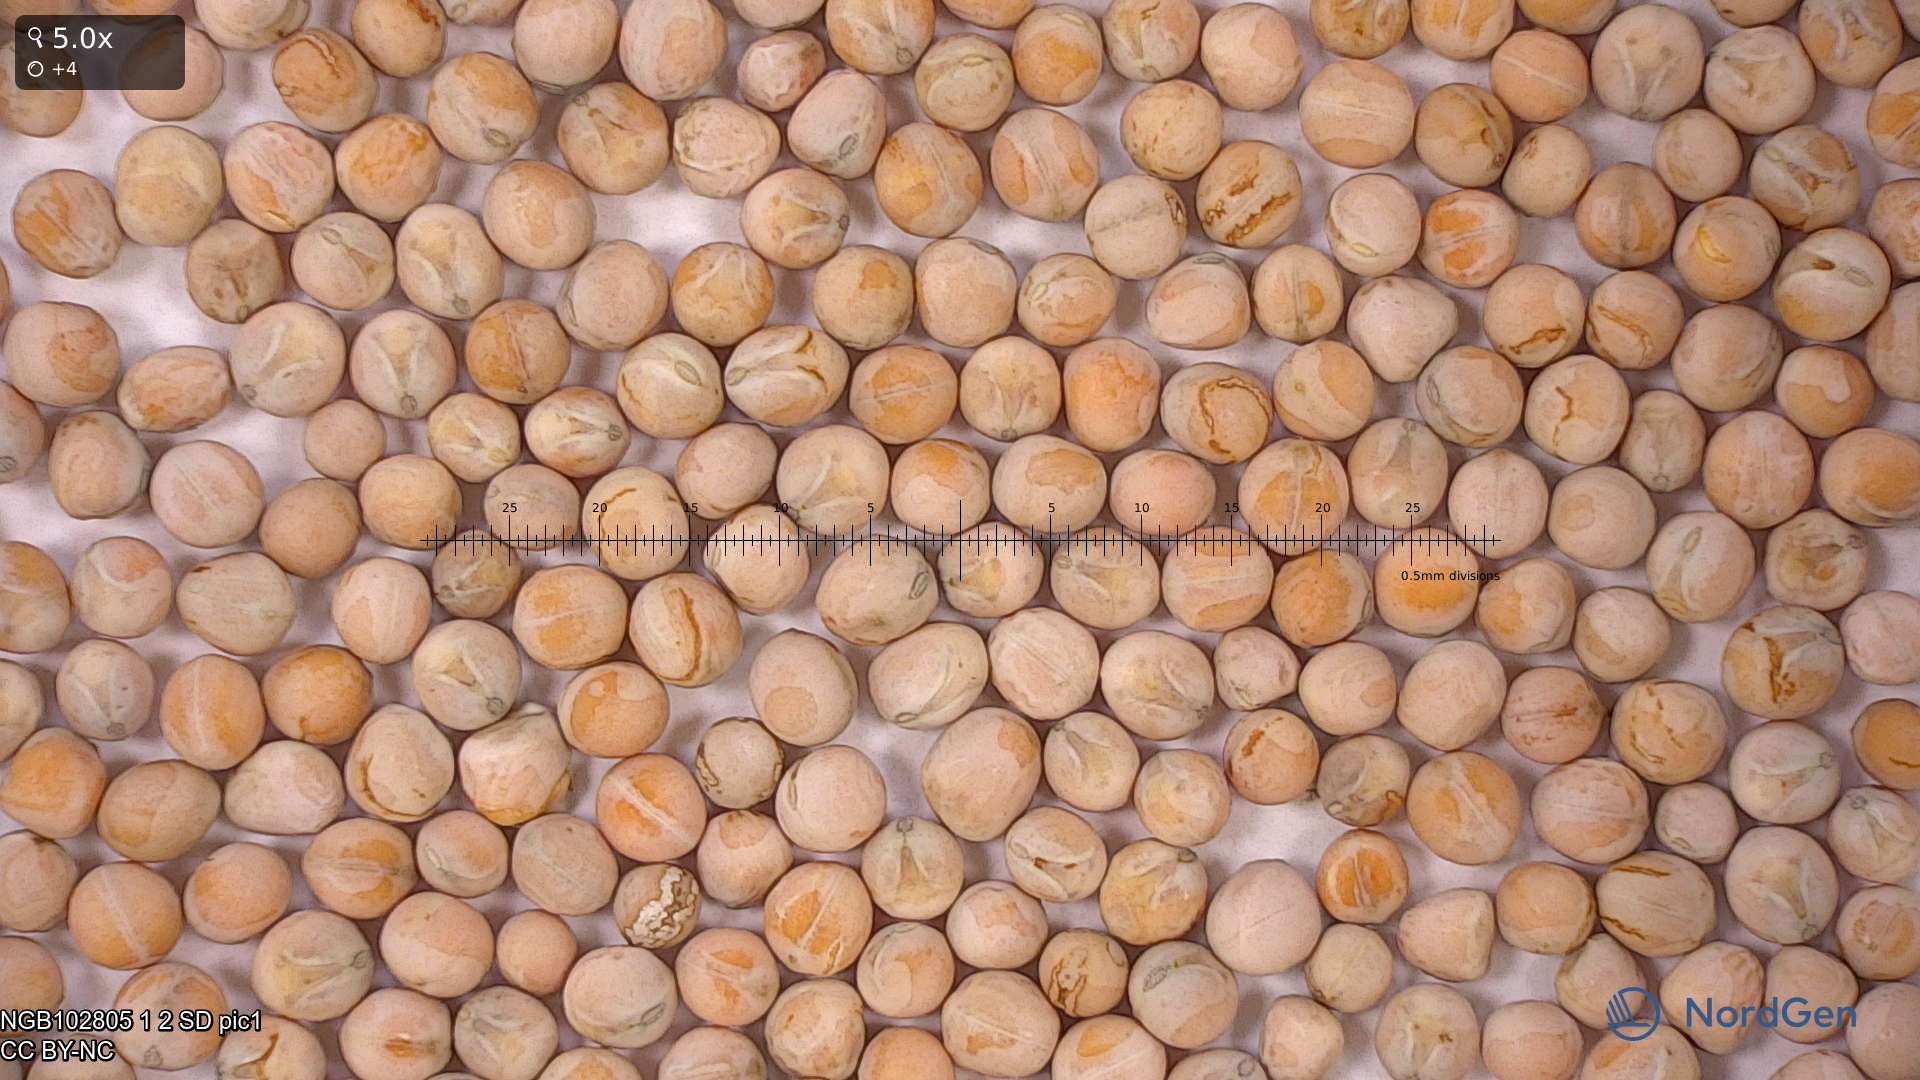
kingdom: Plantae
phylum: Tracheophyta
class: Magnoliopsida
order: Fabales
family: Fabaceae
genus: Lathyrus
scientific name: Lathyrus oleraceus
